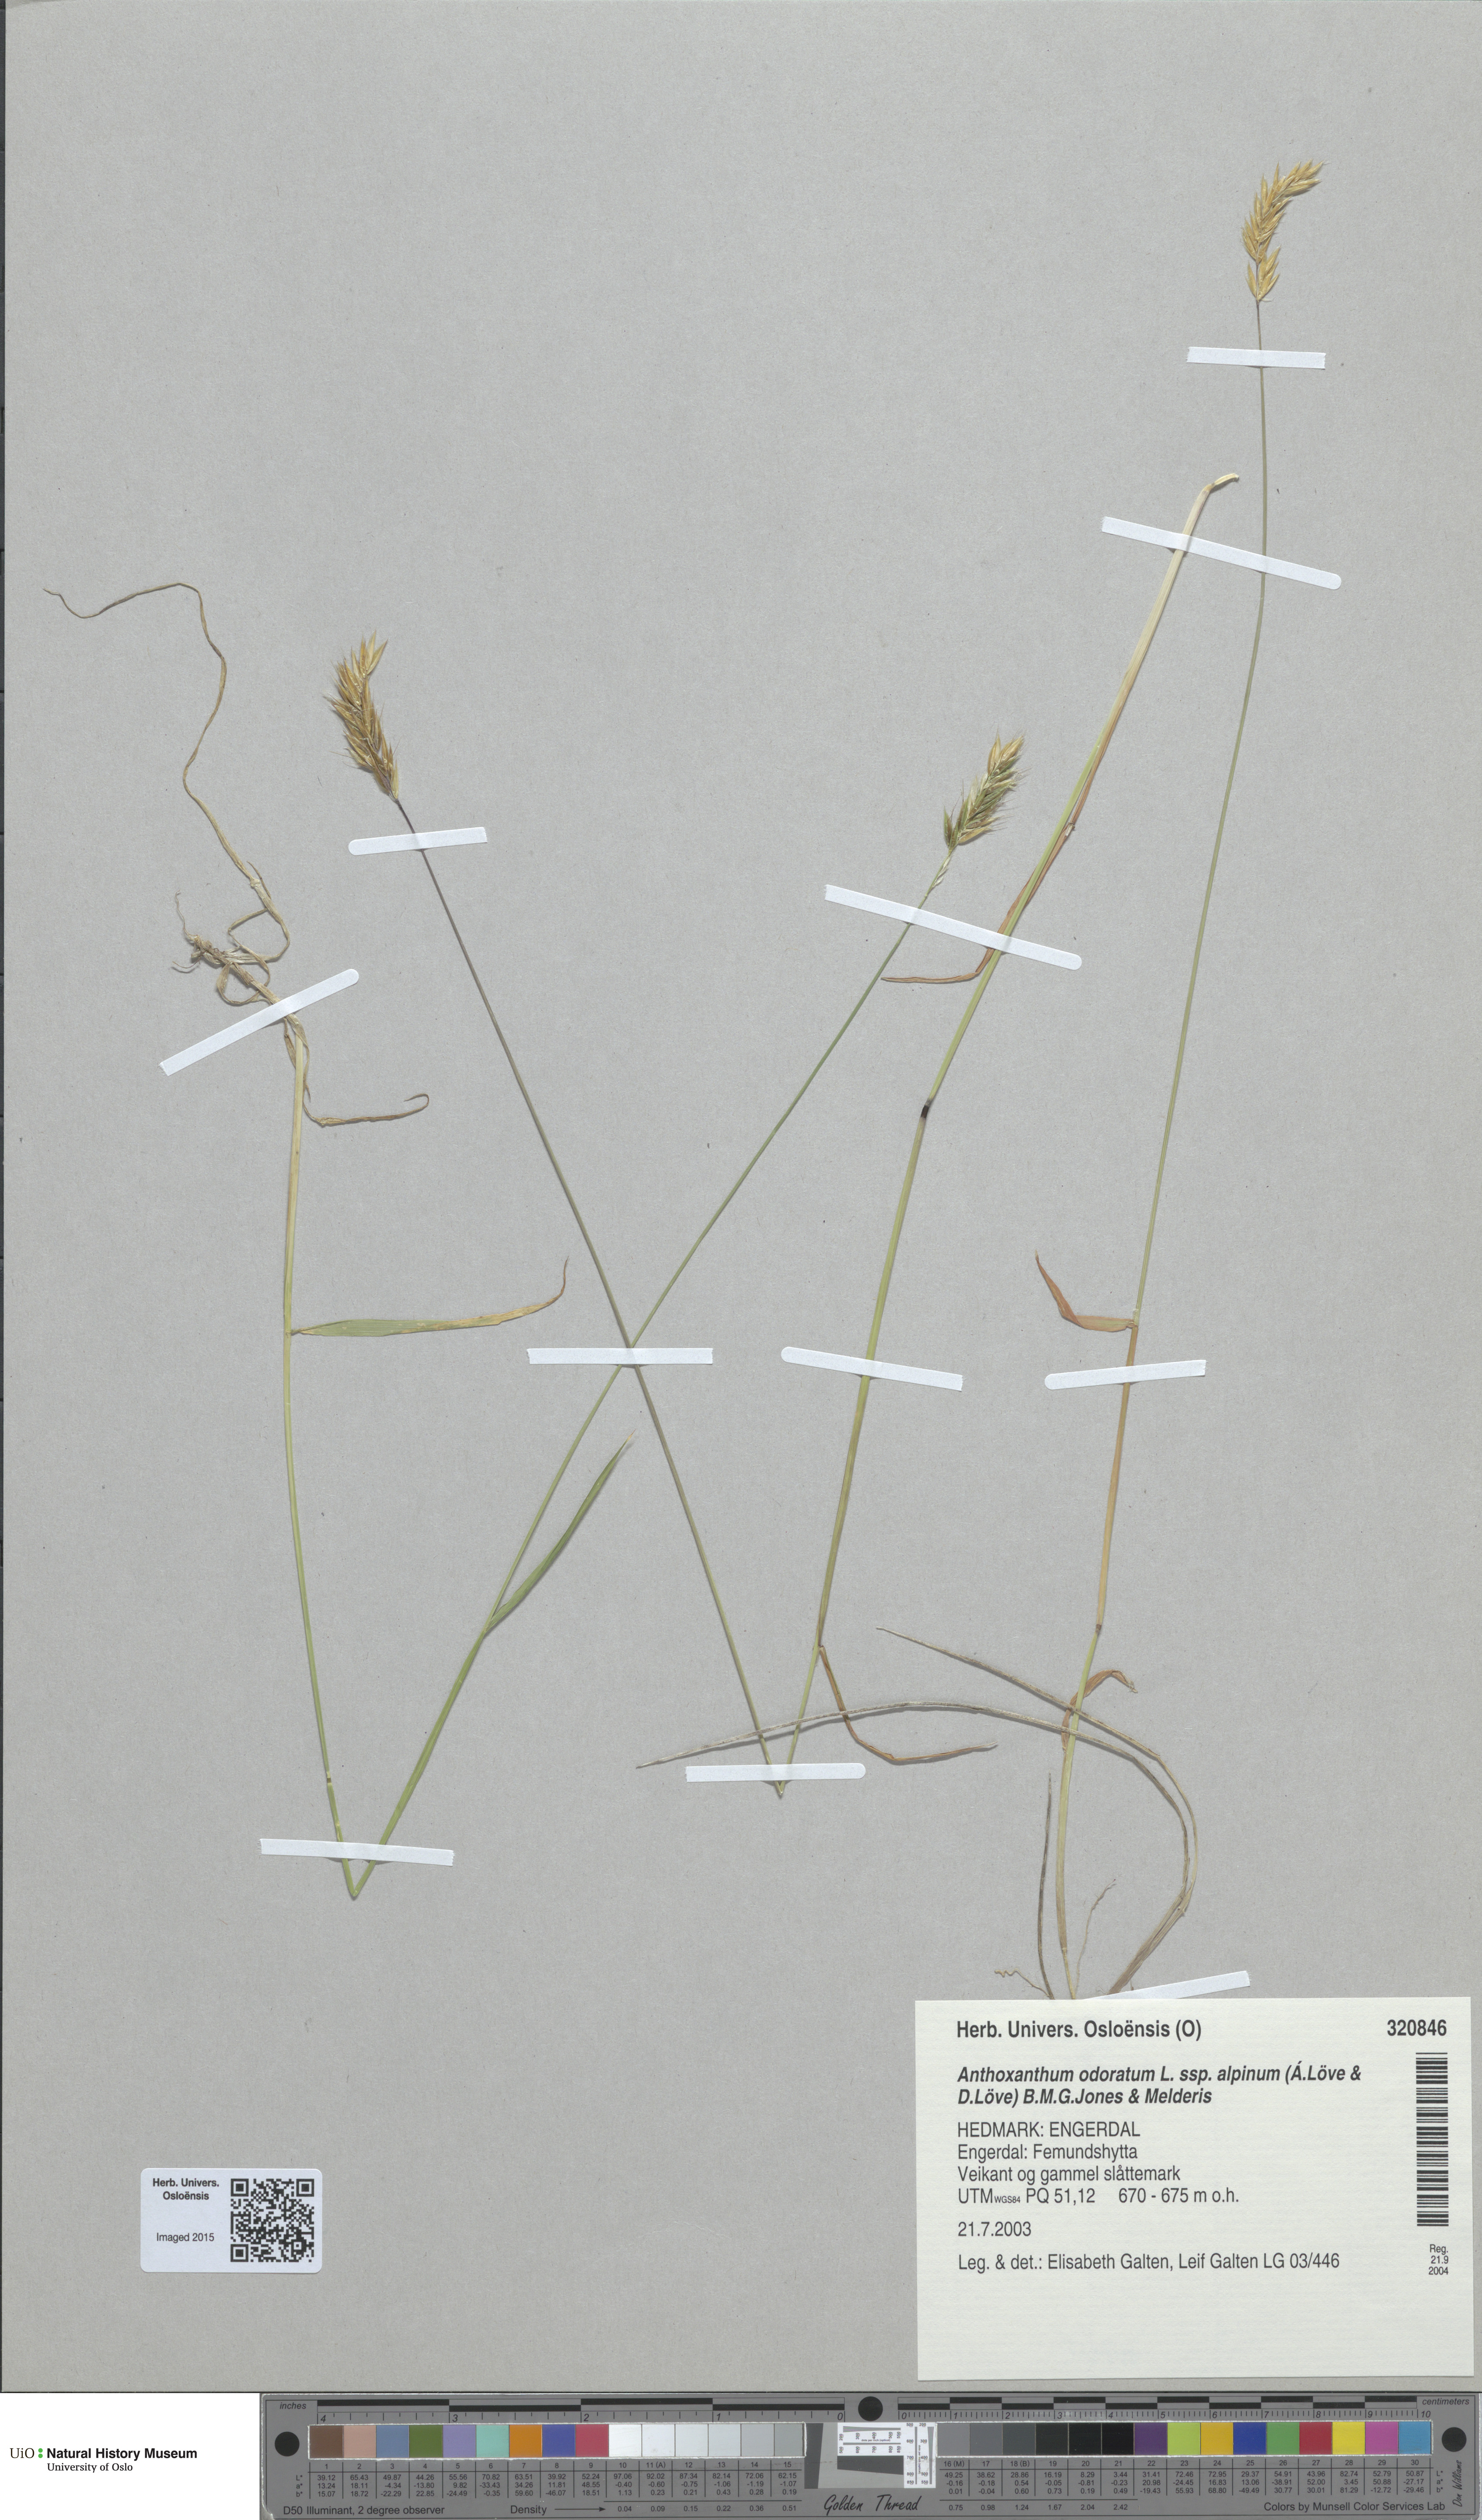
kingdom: Plantae
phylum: Tracheophyta
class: Liliopsida
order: Poales
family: Poaceae
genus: Anthoxanthum
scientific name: Anthoxanthum nipponicum
